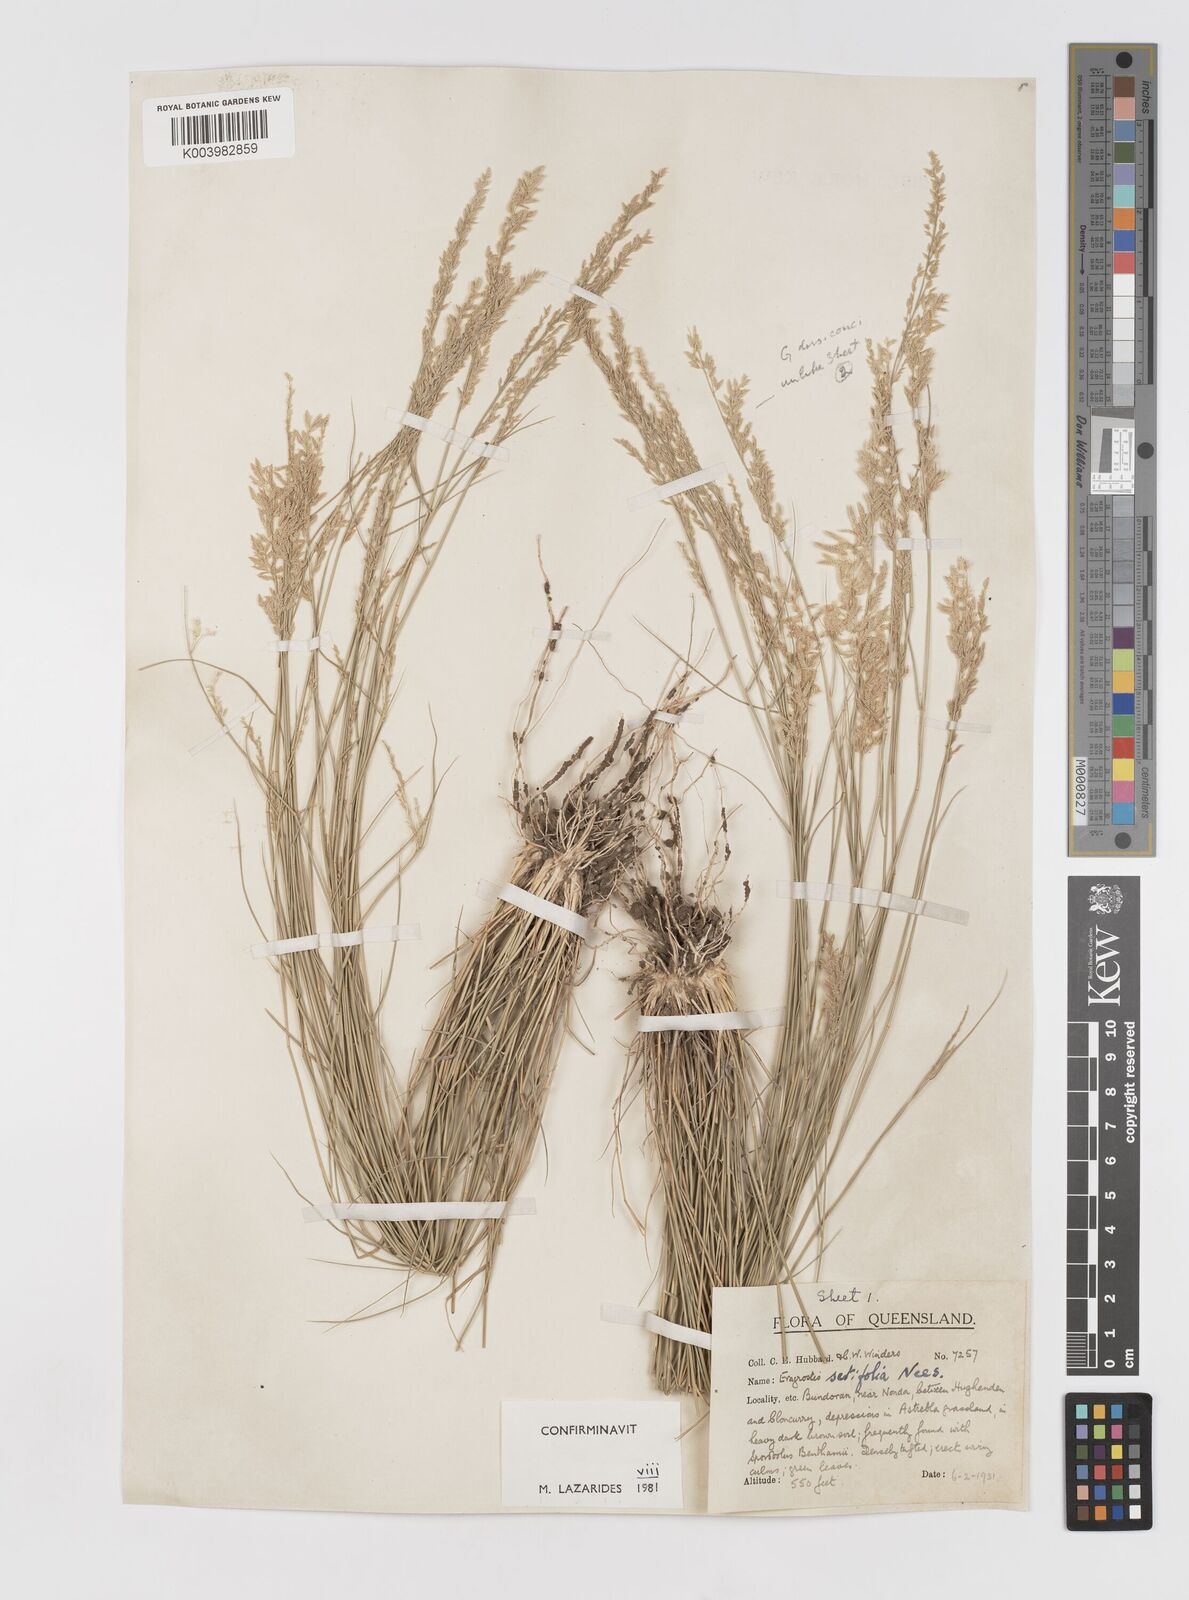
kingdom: Plantae
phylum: Tracheophyta
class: Liliopsida
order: Poales
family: Poaceae
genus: Eragrostis
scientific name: Eragrostis setifolia
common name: Bristleleaf lovegrass
